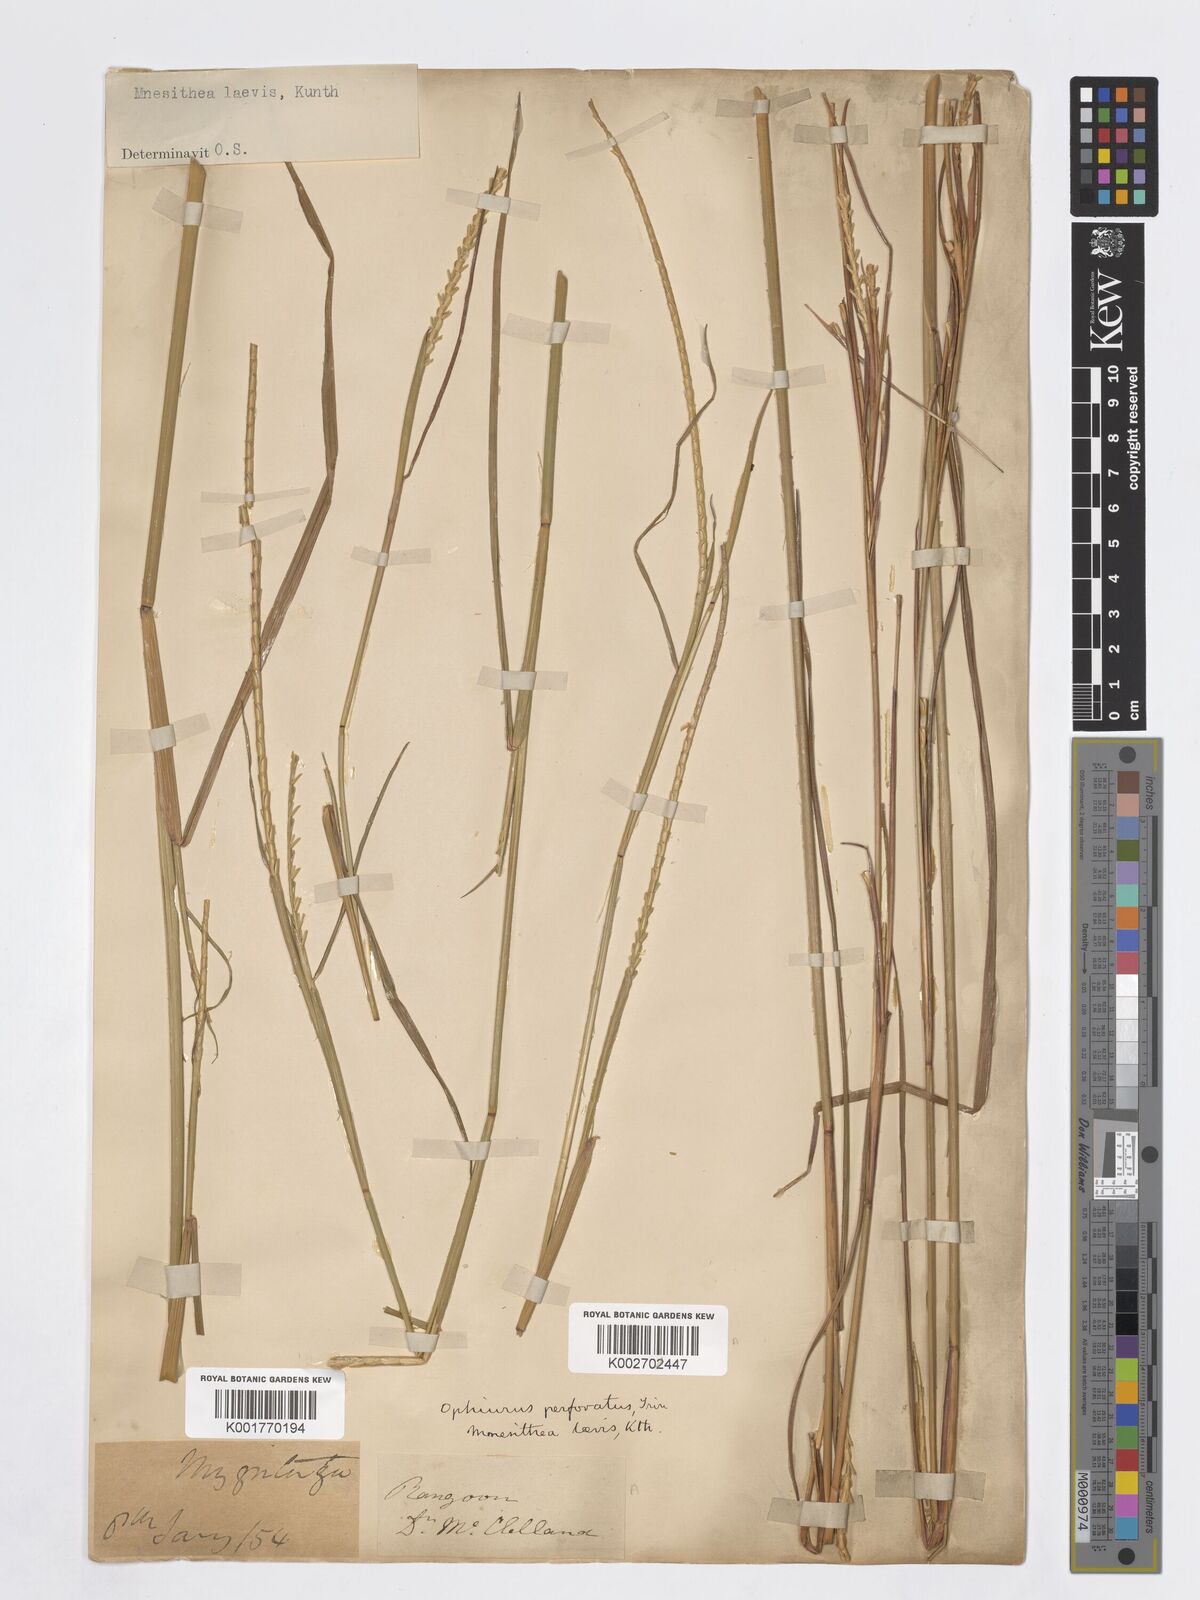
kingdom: Plantae
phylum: Tracheophyta
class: Liliopsida
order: Poales
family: Poaceae
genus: Mnesithea
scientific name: Mnesithea laevis
